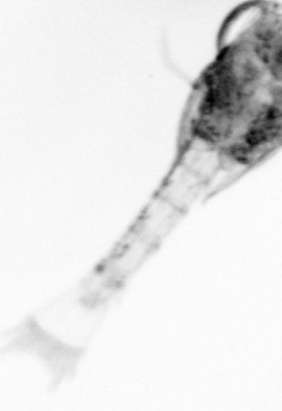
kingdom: Animalia
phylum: Arthropoda
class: Copepoda
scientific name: Copepoda
